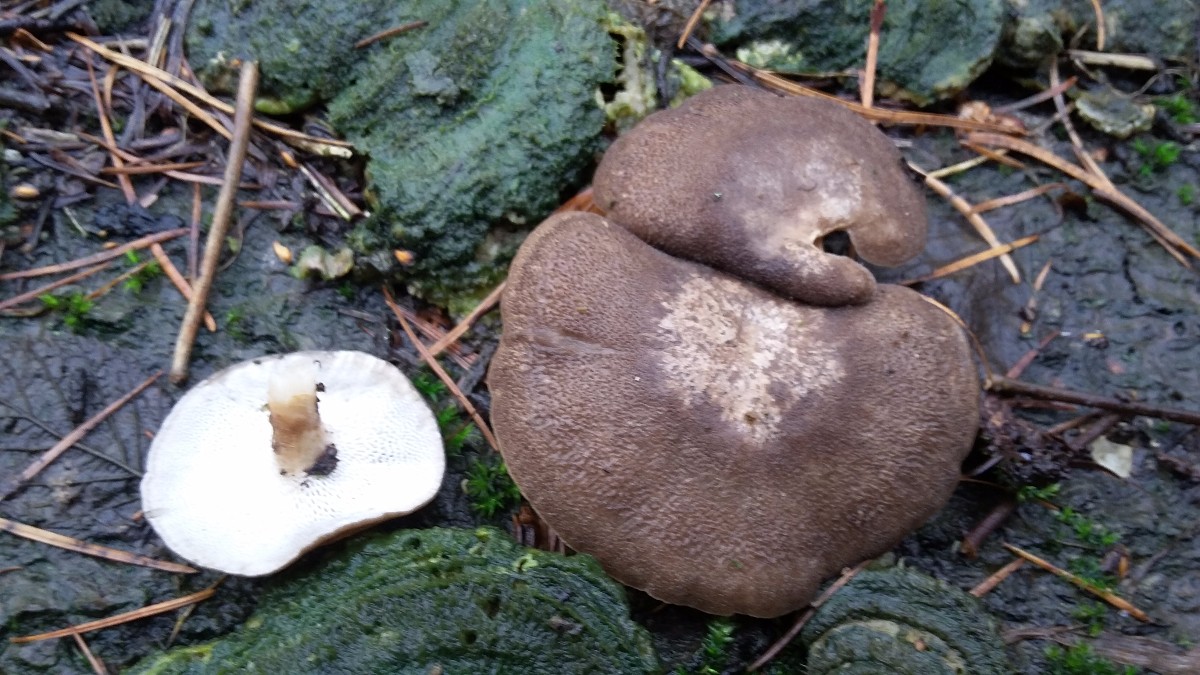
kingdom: Fungi
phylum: Basidiomycota
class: Agaricomycetes
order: Polyporales
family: Polyporaceae
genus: Lentinus
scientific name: Lentinus brumalis
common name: vinter-stilkporesvamp
